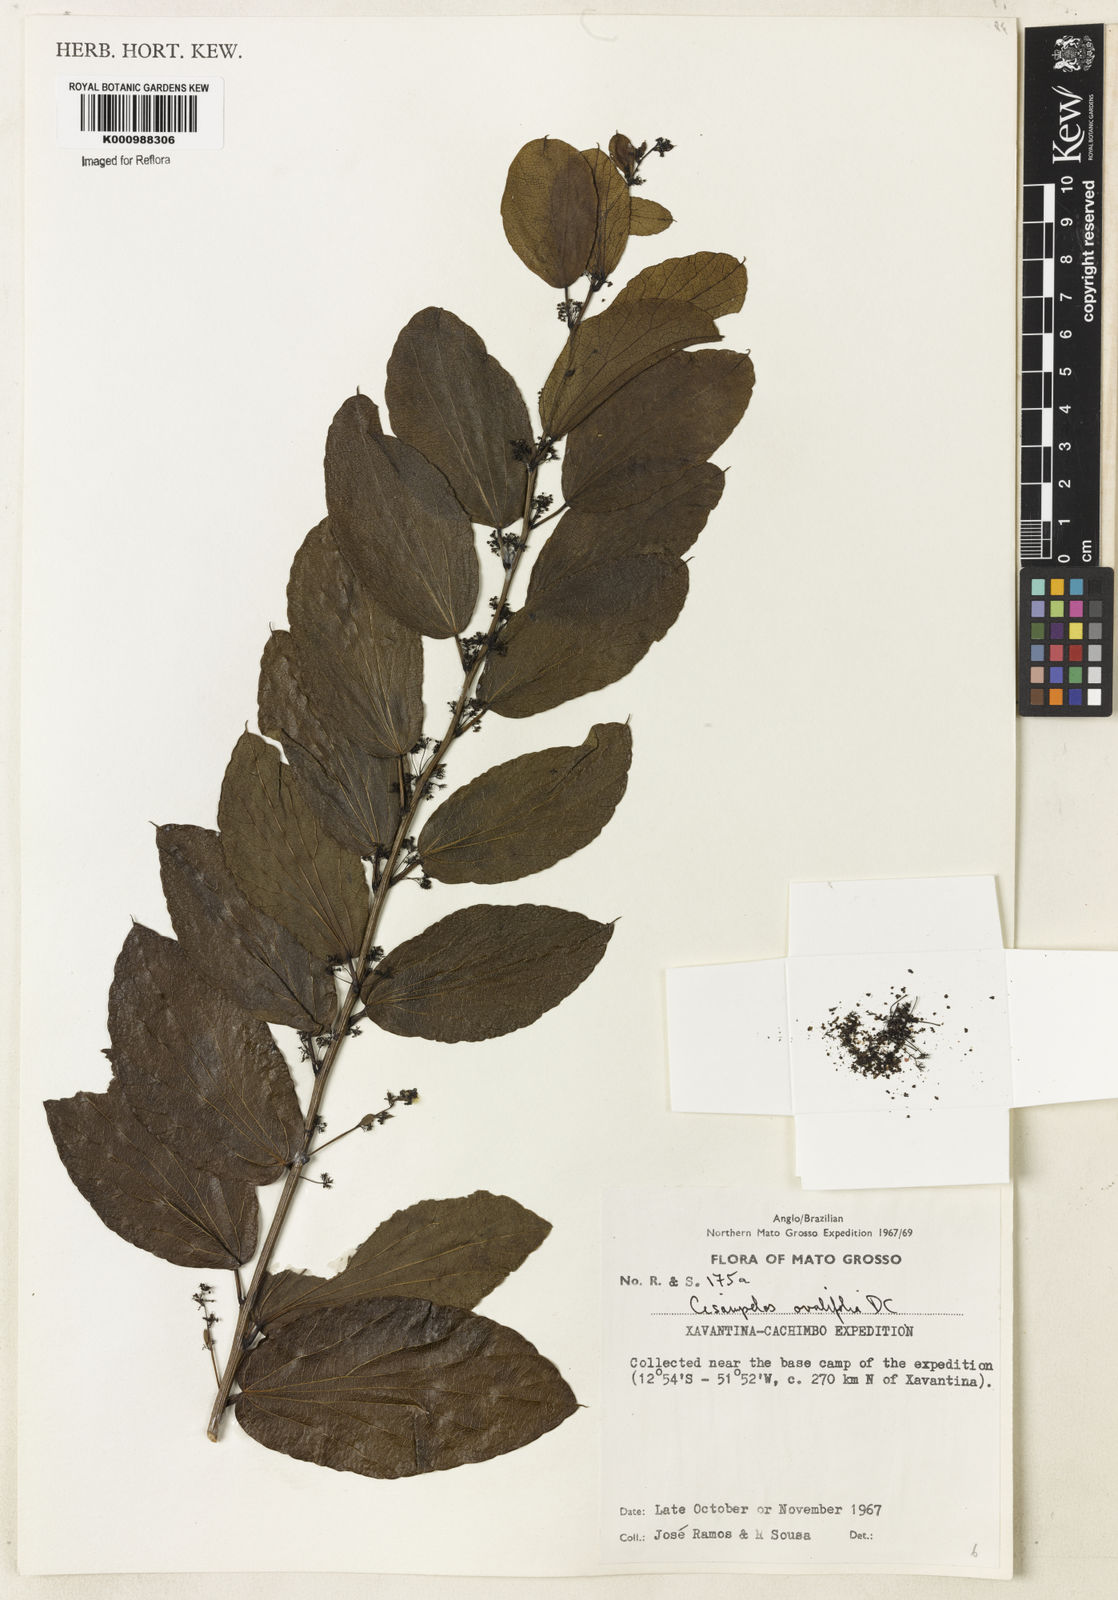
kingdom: Plantae
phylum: Tracheophyta
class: Magnoliopsida
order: Ranunculales
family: Menispermaceae
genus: Cissampelos
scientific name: Cissampelos ovalifolia
